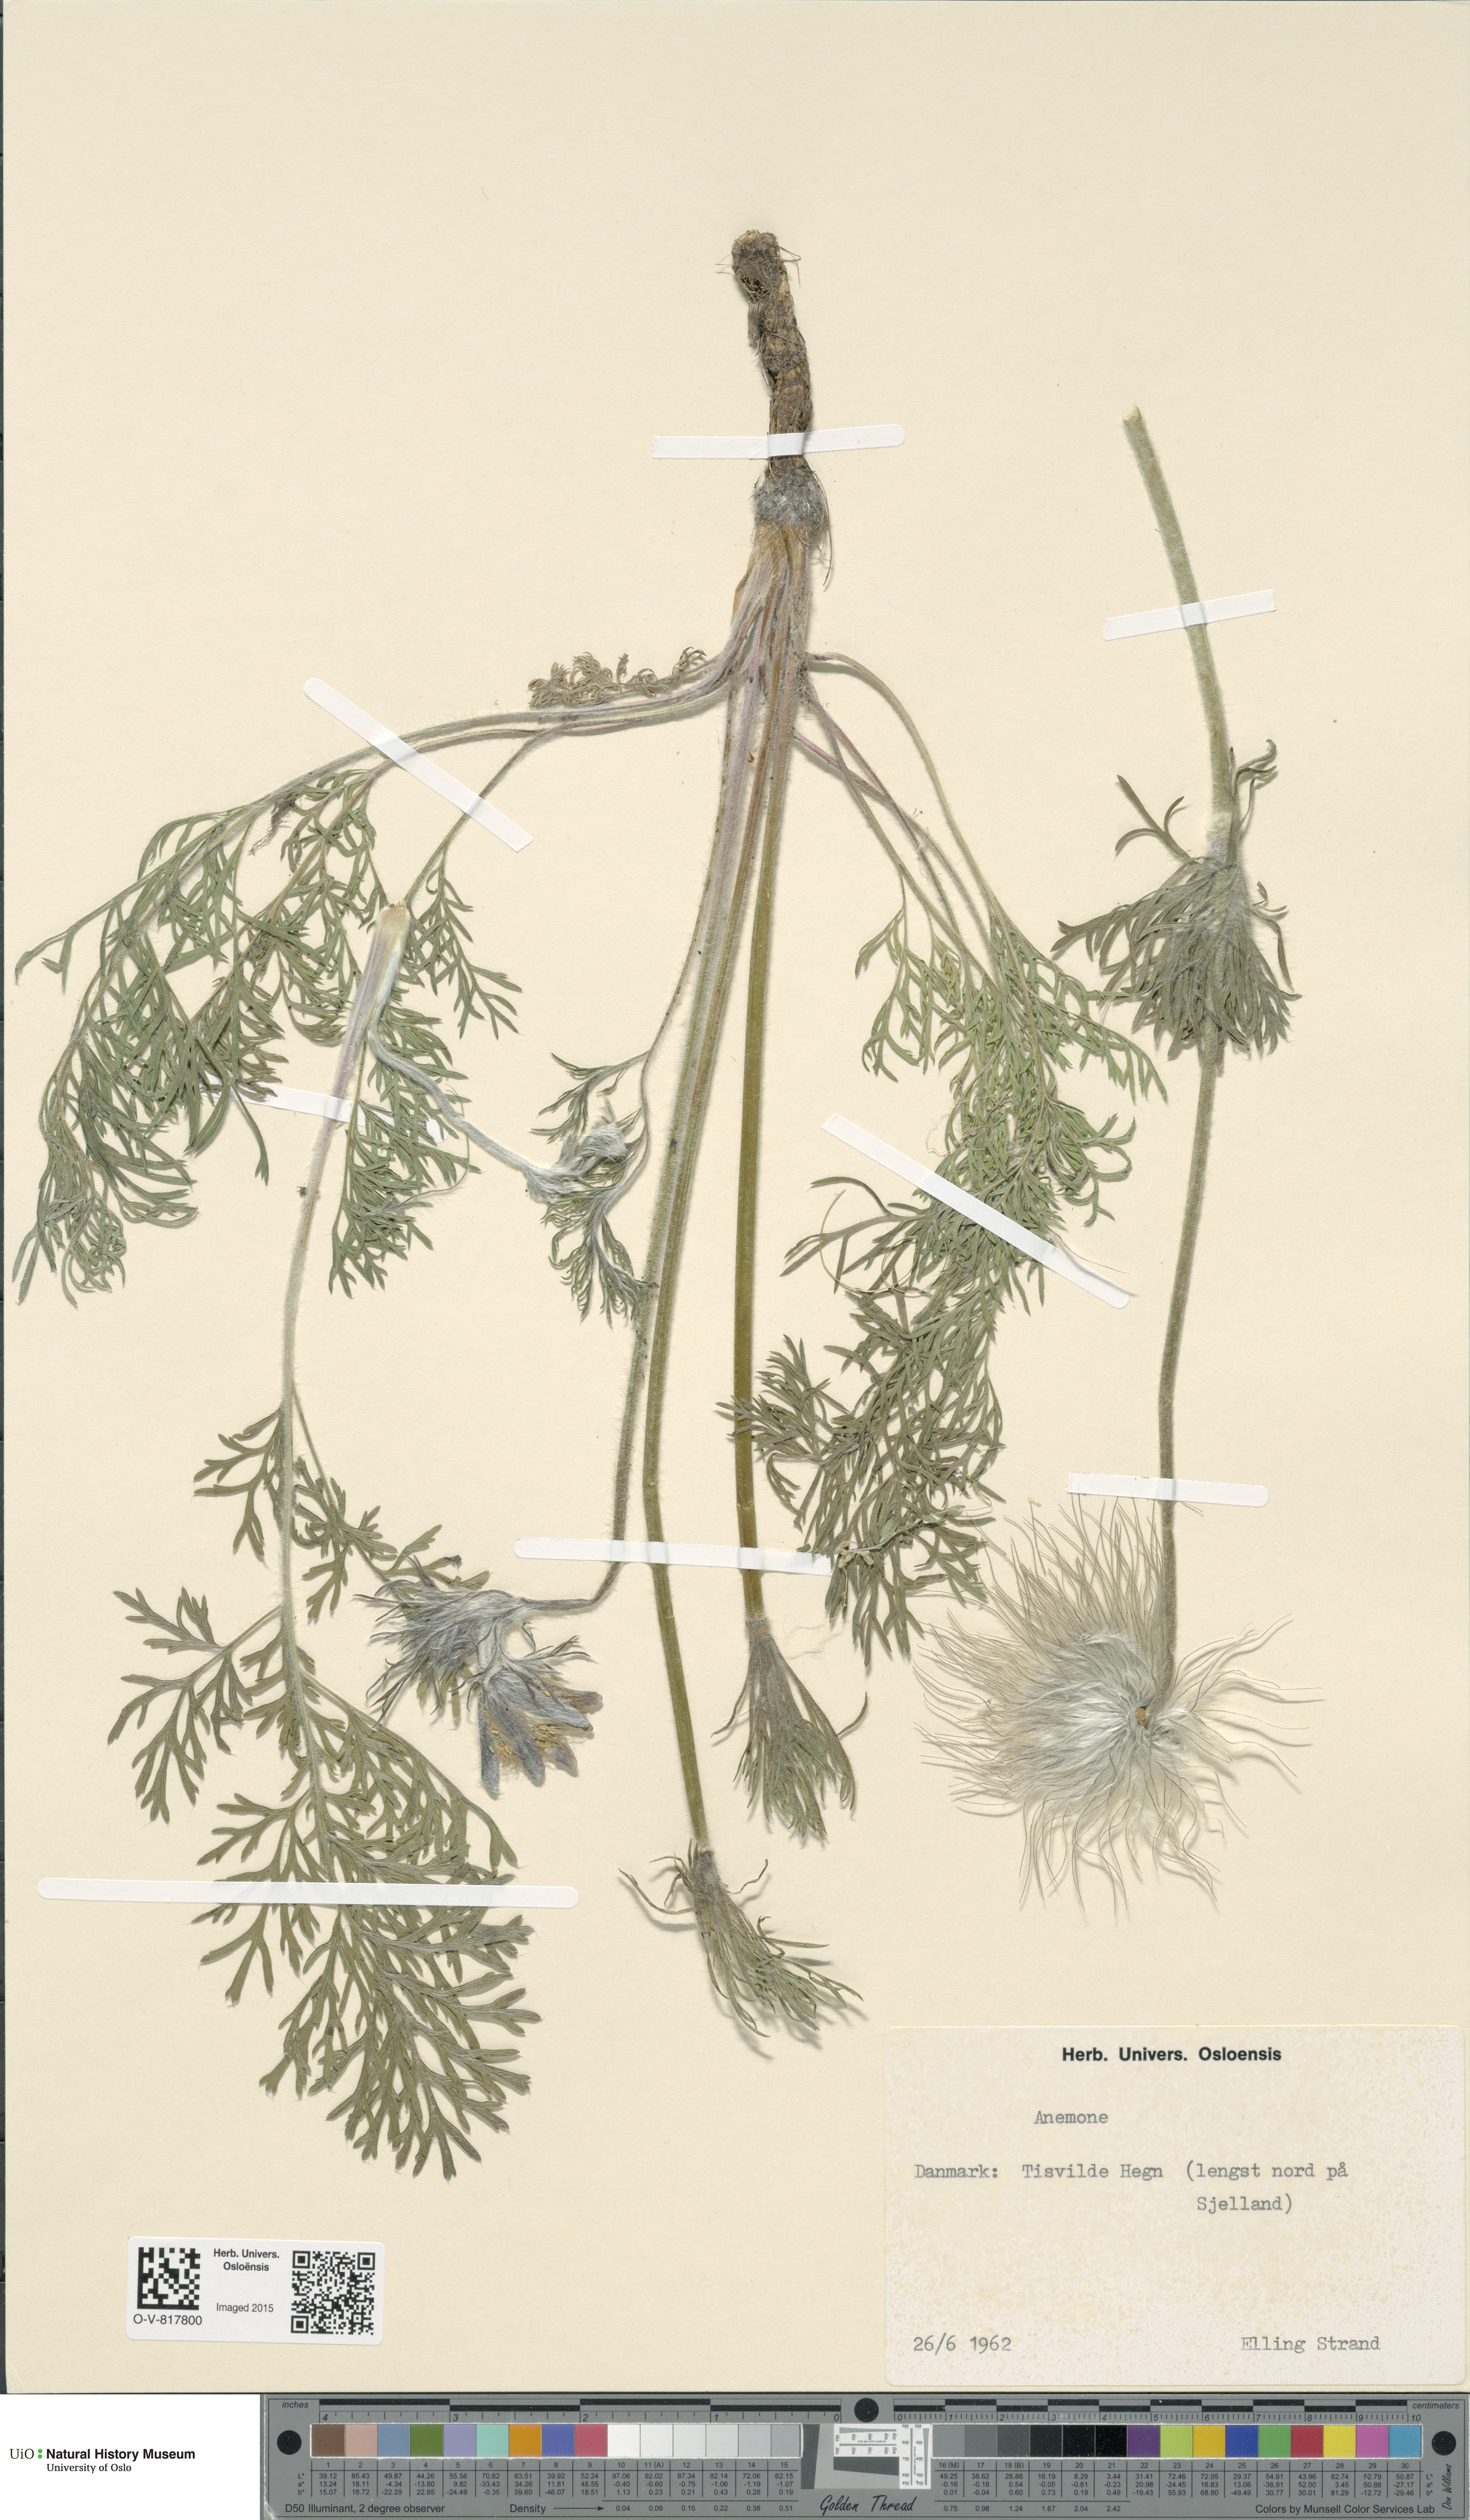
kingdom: Plantae
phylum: Tracheophyta
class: Magnoliopsida
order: Ranunculales
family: Ranunculaceae
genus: Anemone
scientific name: Anemone
